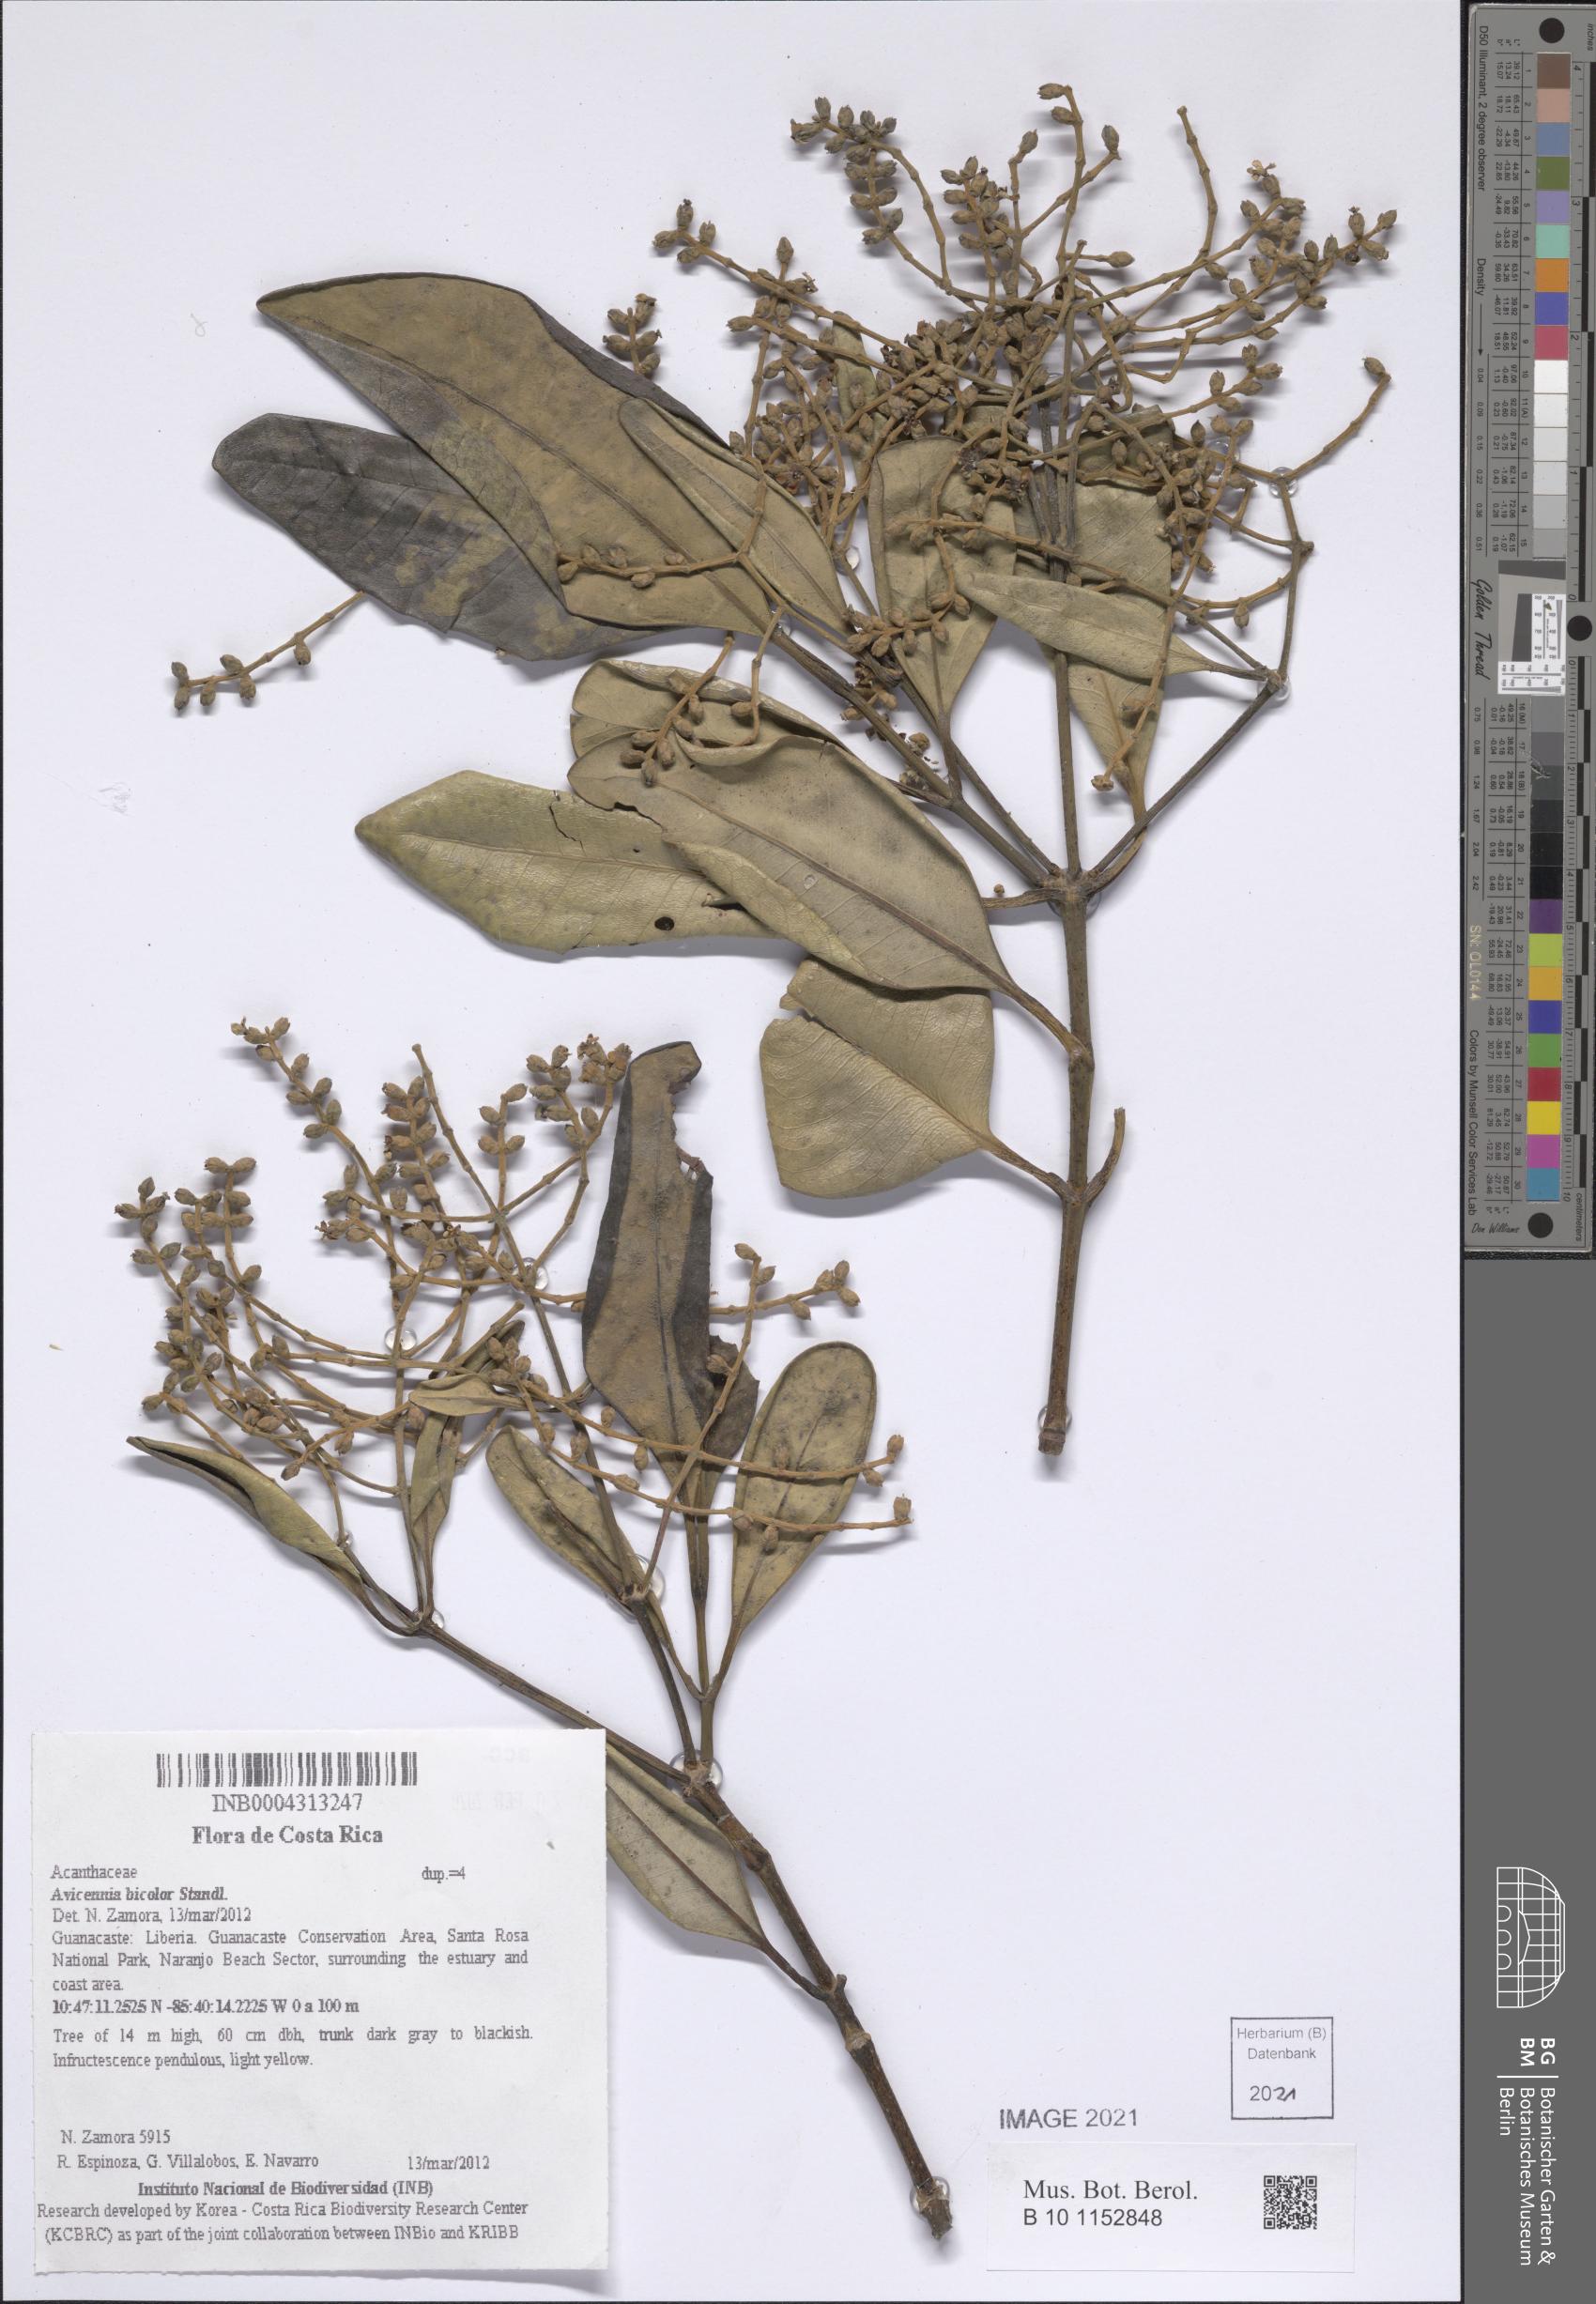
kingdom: Plantae
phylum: Tracheophyta
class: Magnoliopsida
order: Lamiales
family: Acanthaceae
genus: Avicennia
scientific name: Avicennia bicolor
